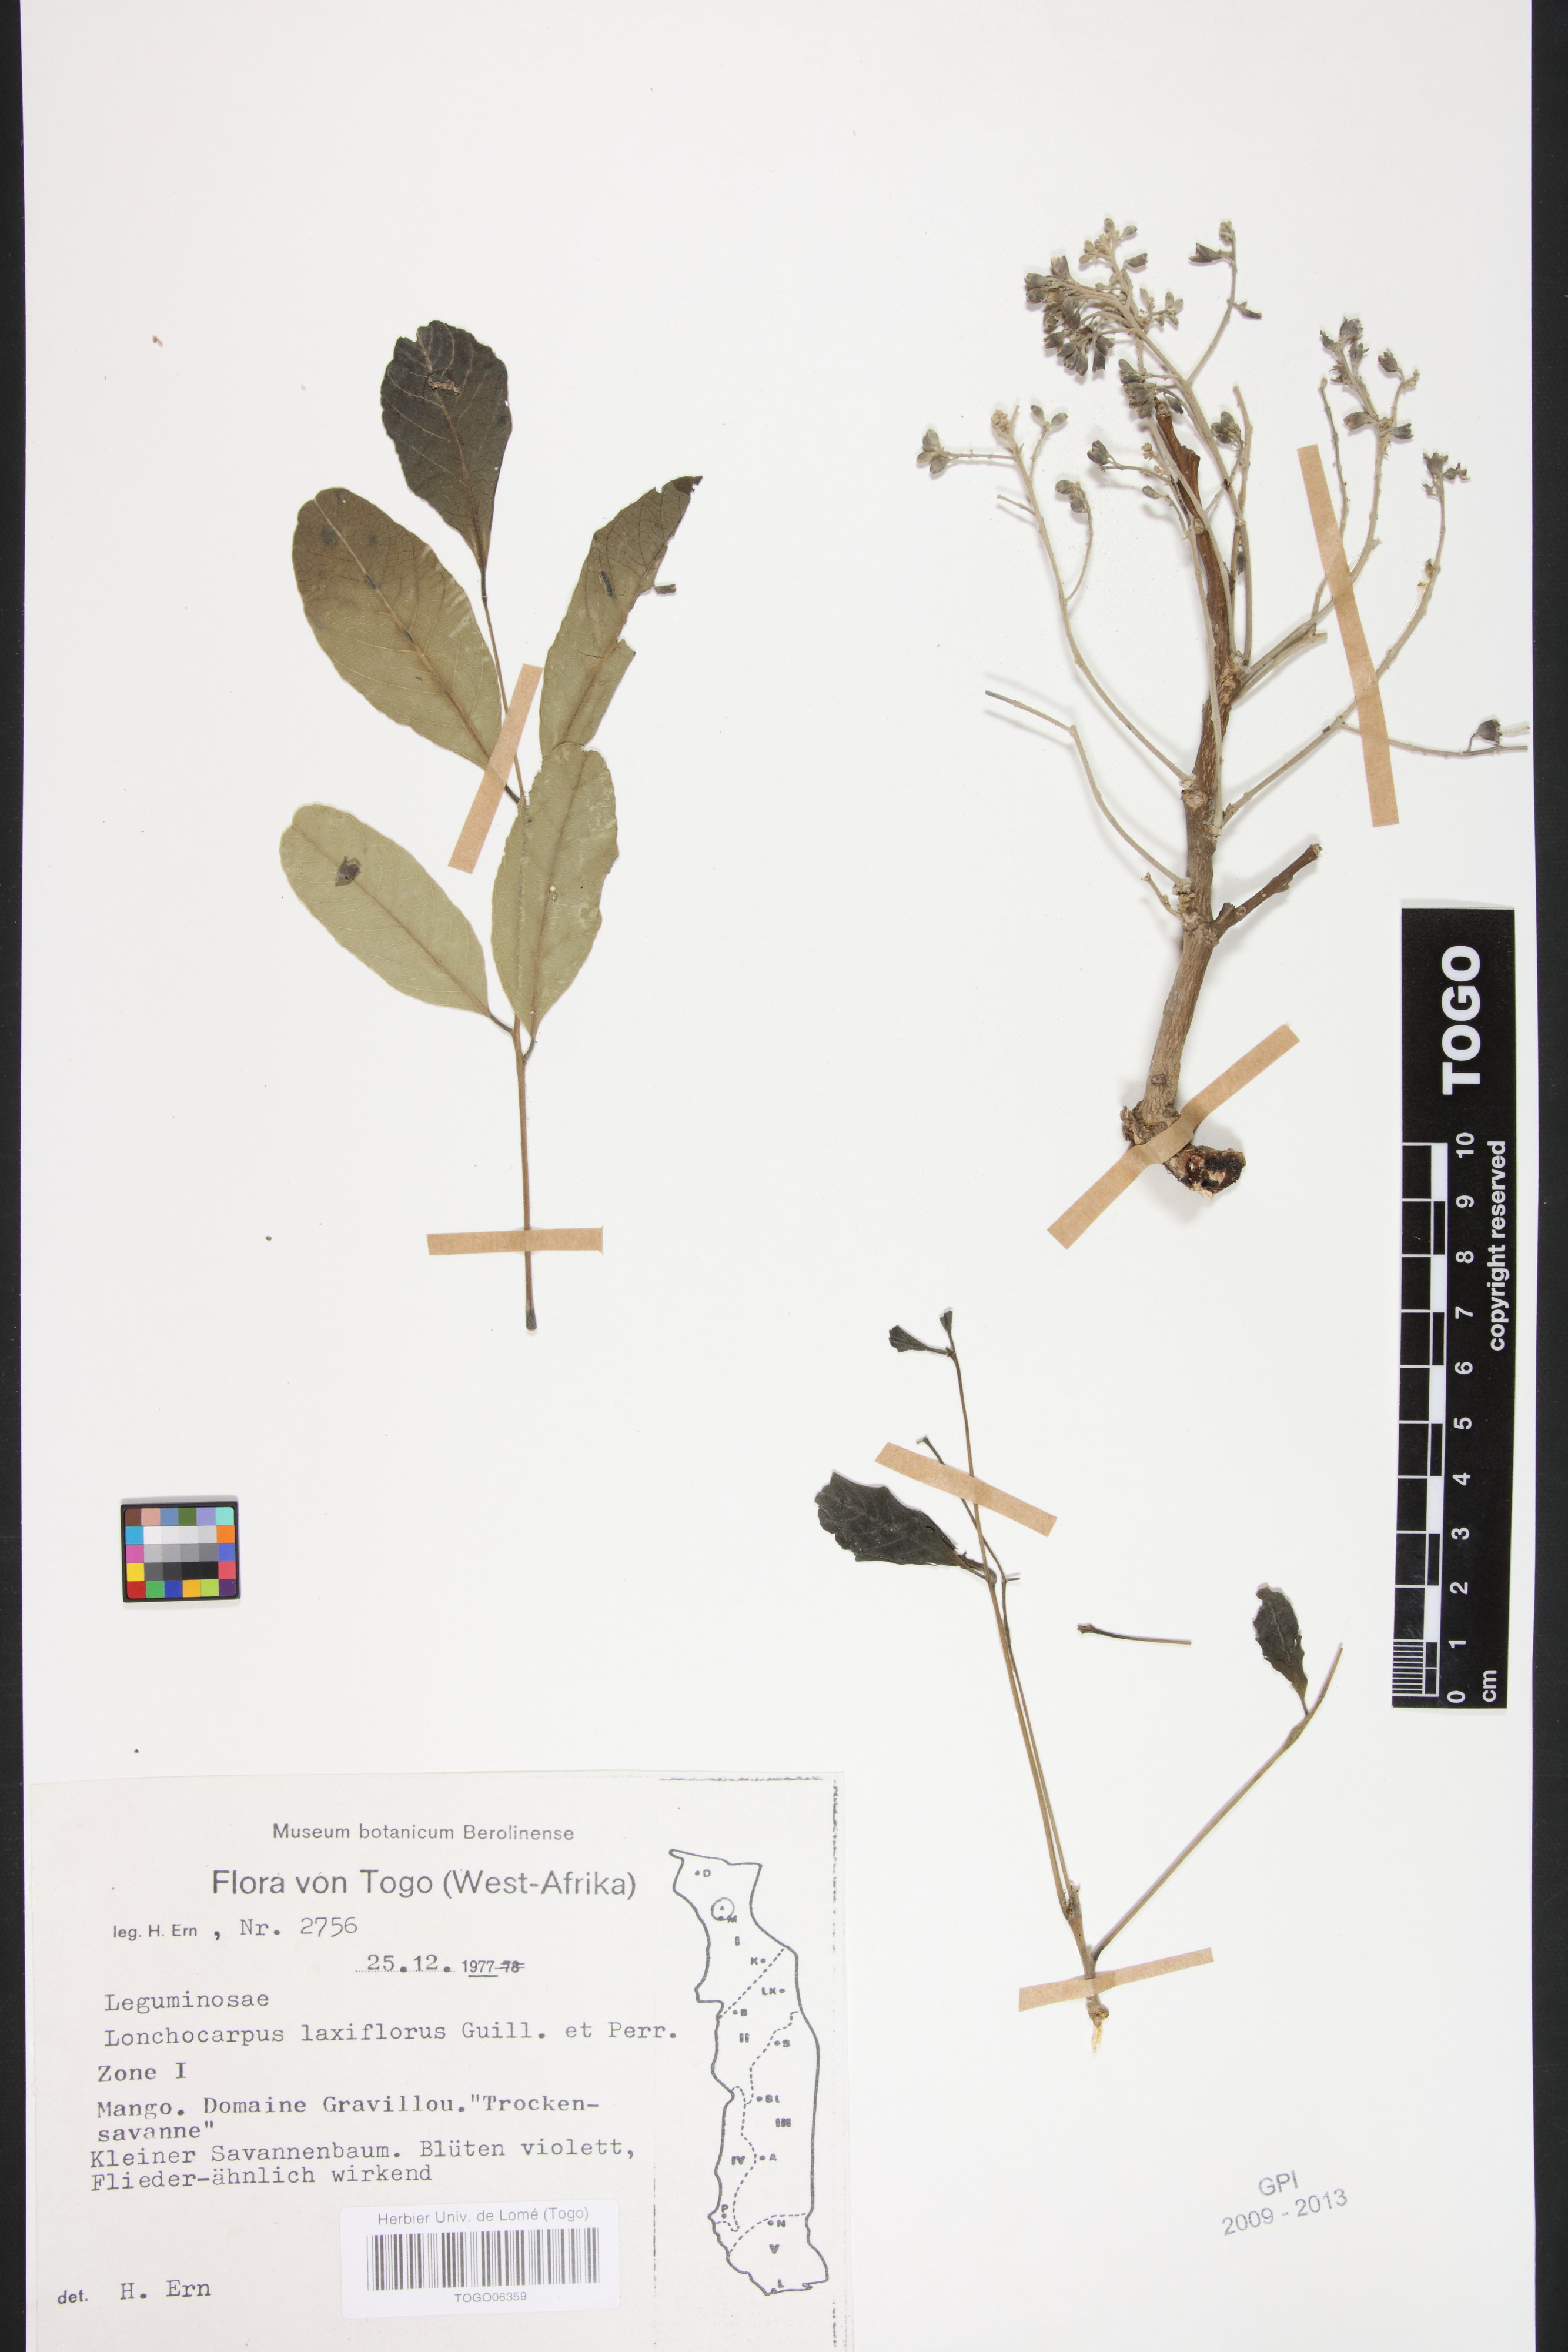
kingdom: Plantae
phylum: Tracheophyta
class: Magnoliopsida
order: Fabales
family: Fabaceae
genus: Philenoptera
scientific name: Philenoptera laxiflora
